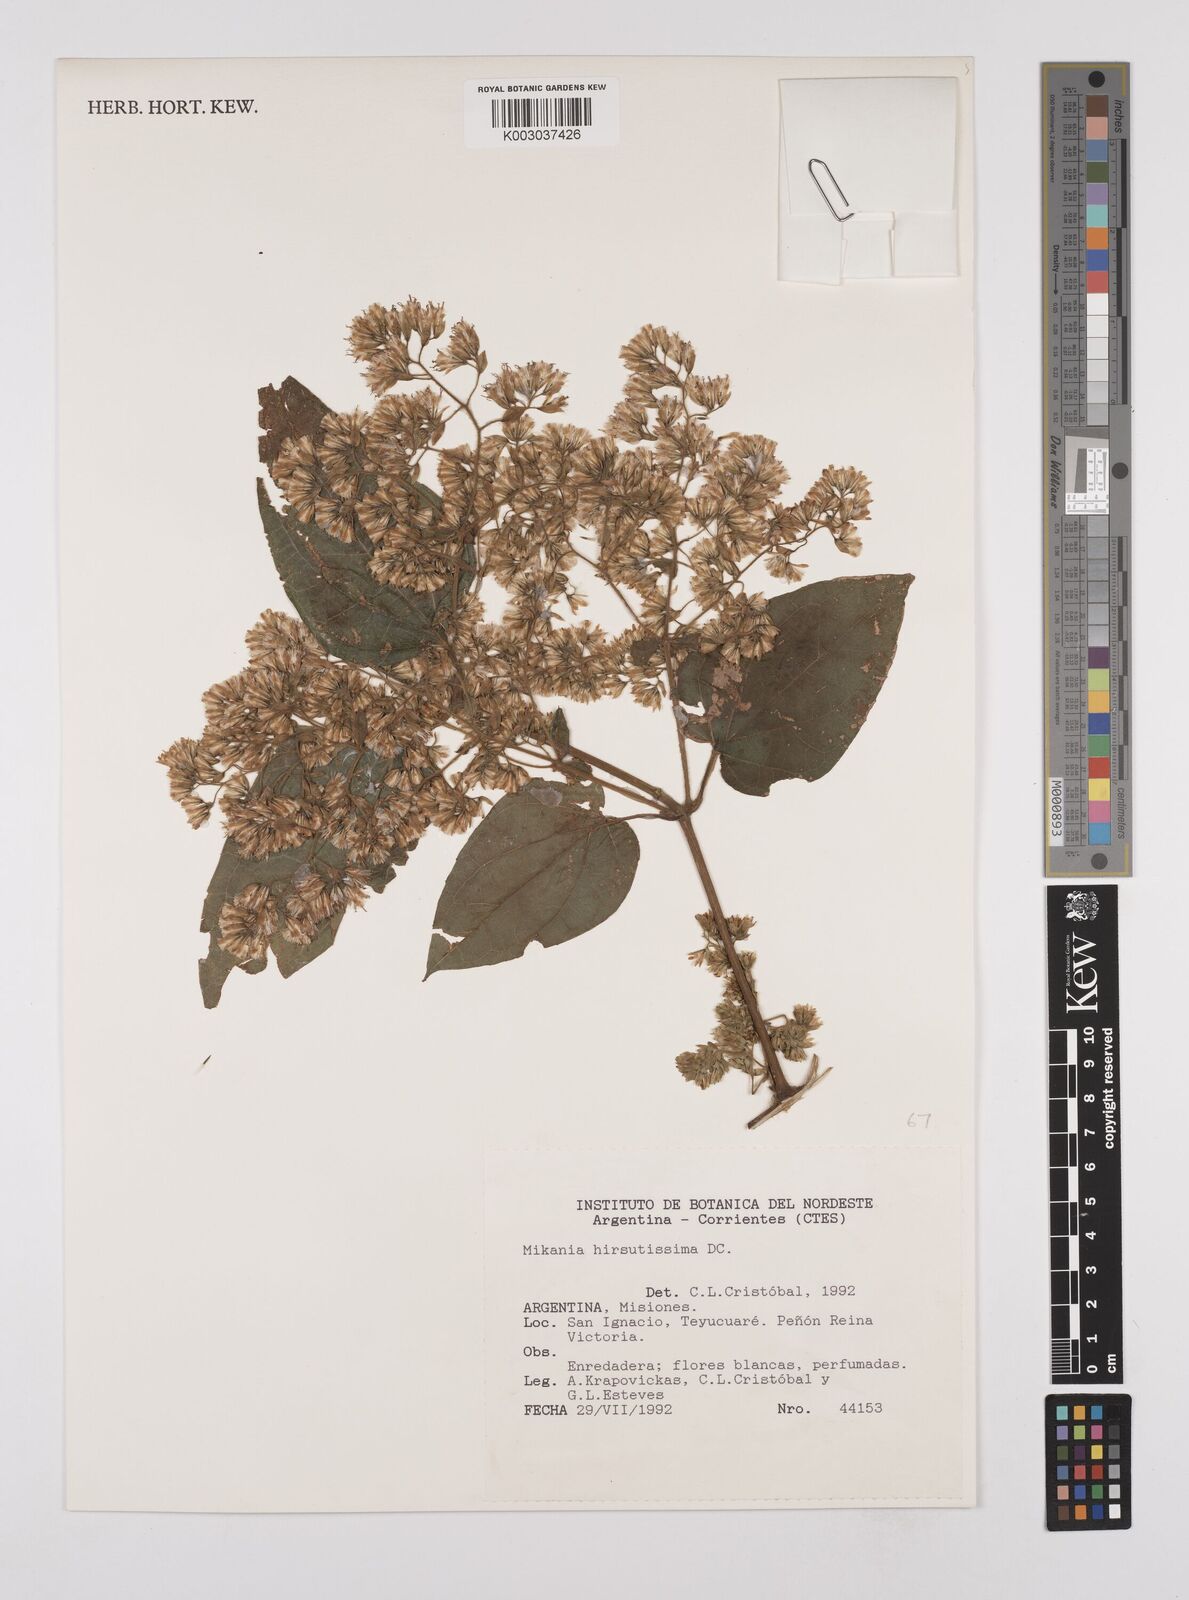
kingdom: Plantae
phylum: Tracheophyta
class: Magnoliopsida
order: Asterales
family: Asteraceae
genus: Mikania
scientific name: Mikania banisteriae
